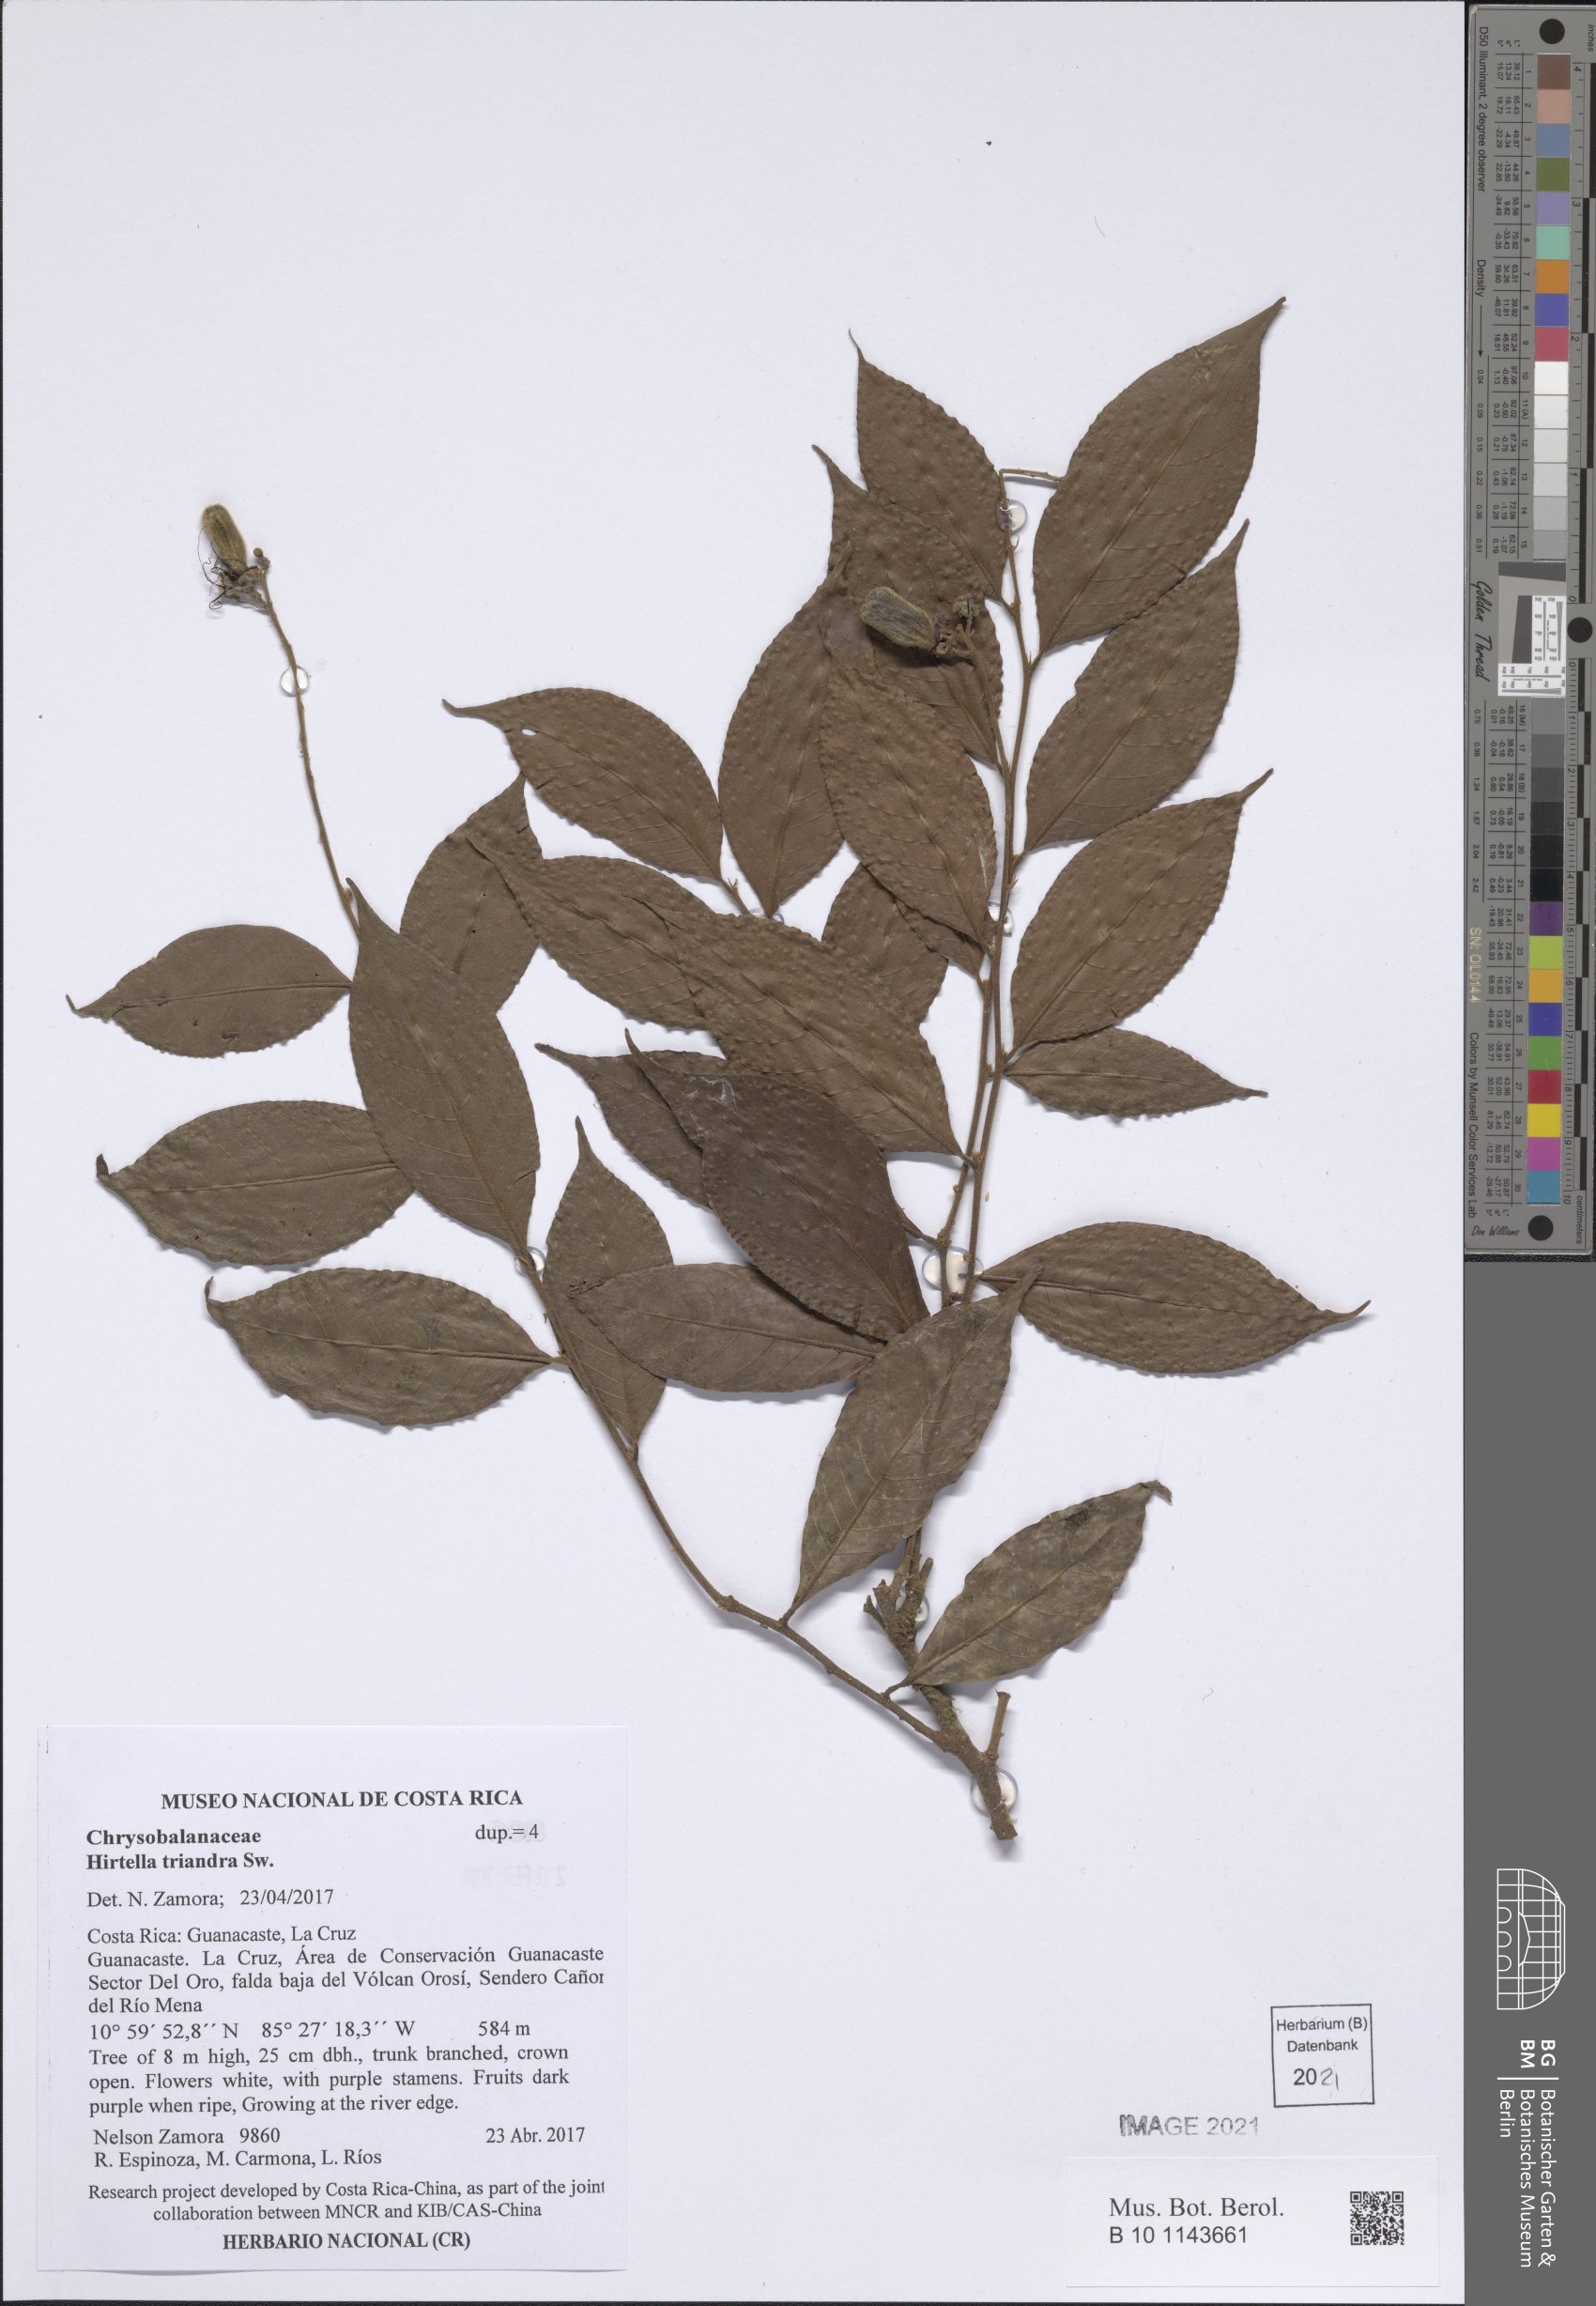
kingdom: Plantae
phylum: Tracheophyta
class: Magnoliopsida
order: Malpighiales
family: Chrysobalanaceae
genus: Hirtella
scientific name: Hirtella triandra
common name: Hairy plum
